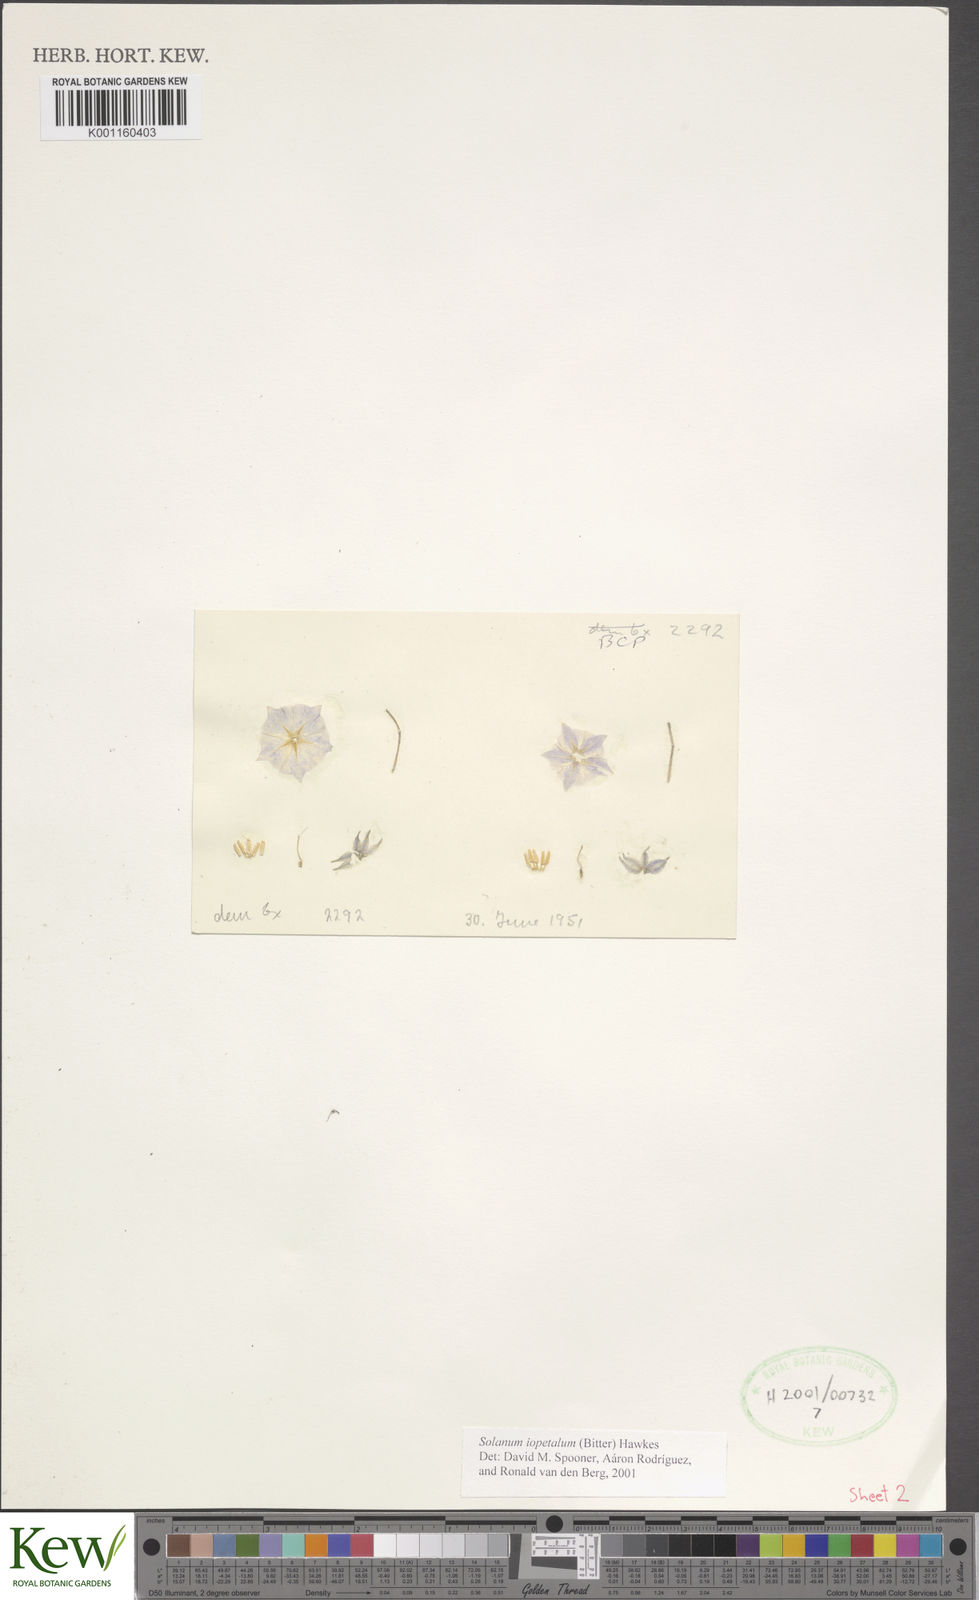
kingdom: Plantae
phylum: Tracheophyta
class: Magnoliopsida
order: Solanales
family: Solanaceae
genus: Solanum
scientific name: Solanum iopetalum
